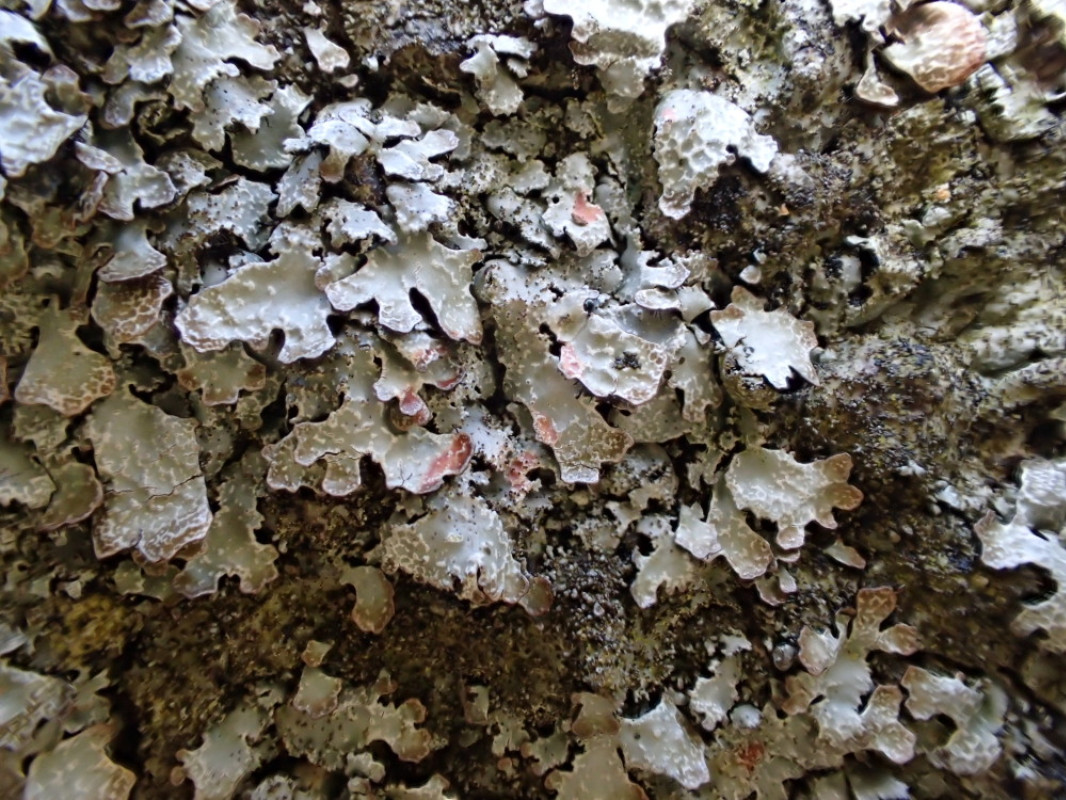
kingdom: Fungi
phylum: Ascomycota
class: Lecanoromycetes
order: Lecanorales
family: Parmeliaceae
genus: Parmelia
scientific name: Parmelia saxatilis
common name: farve-skållav
